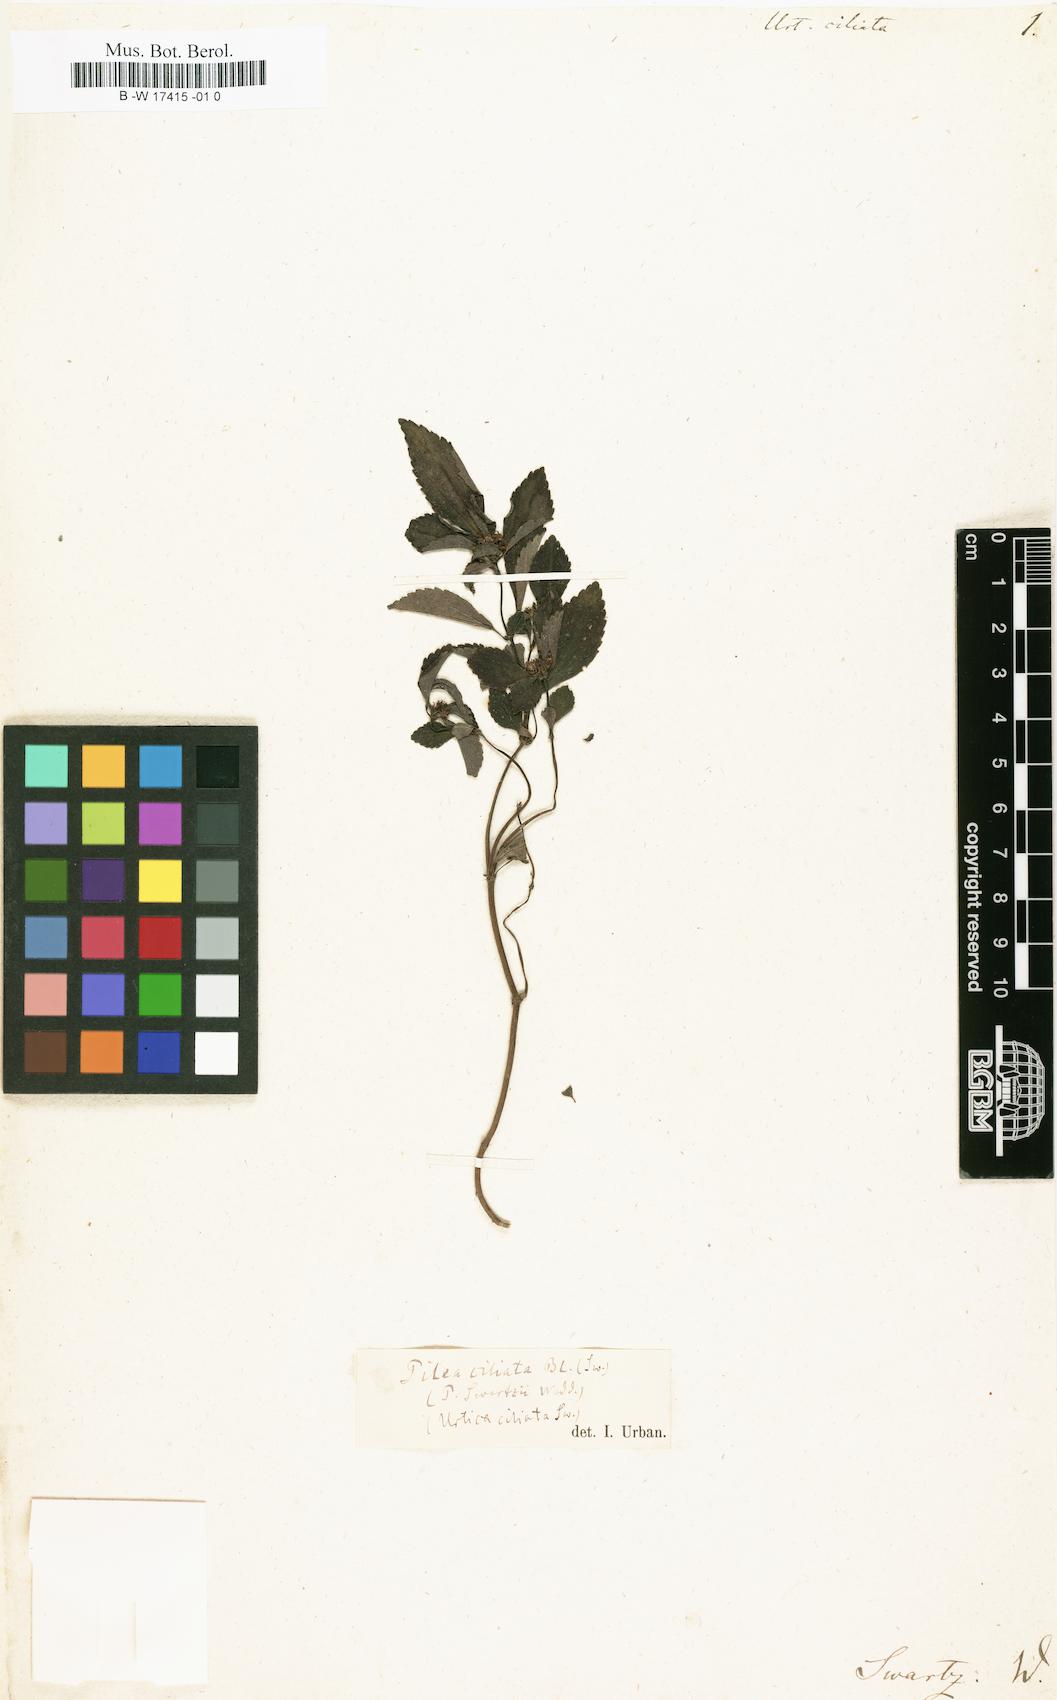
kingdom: Plantae
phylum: Tracheophyta
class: Magnoliopsida
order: Rosales
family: Urticaceae
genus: Boehmeria
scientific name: Boehmeria repens
